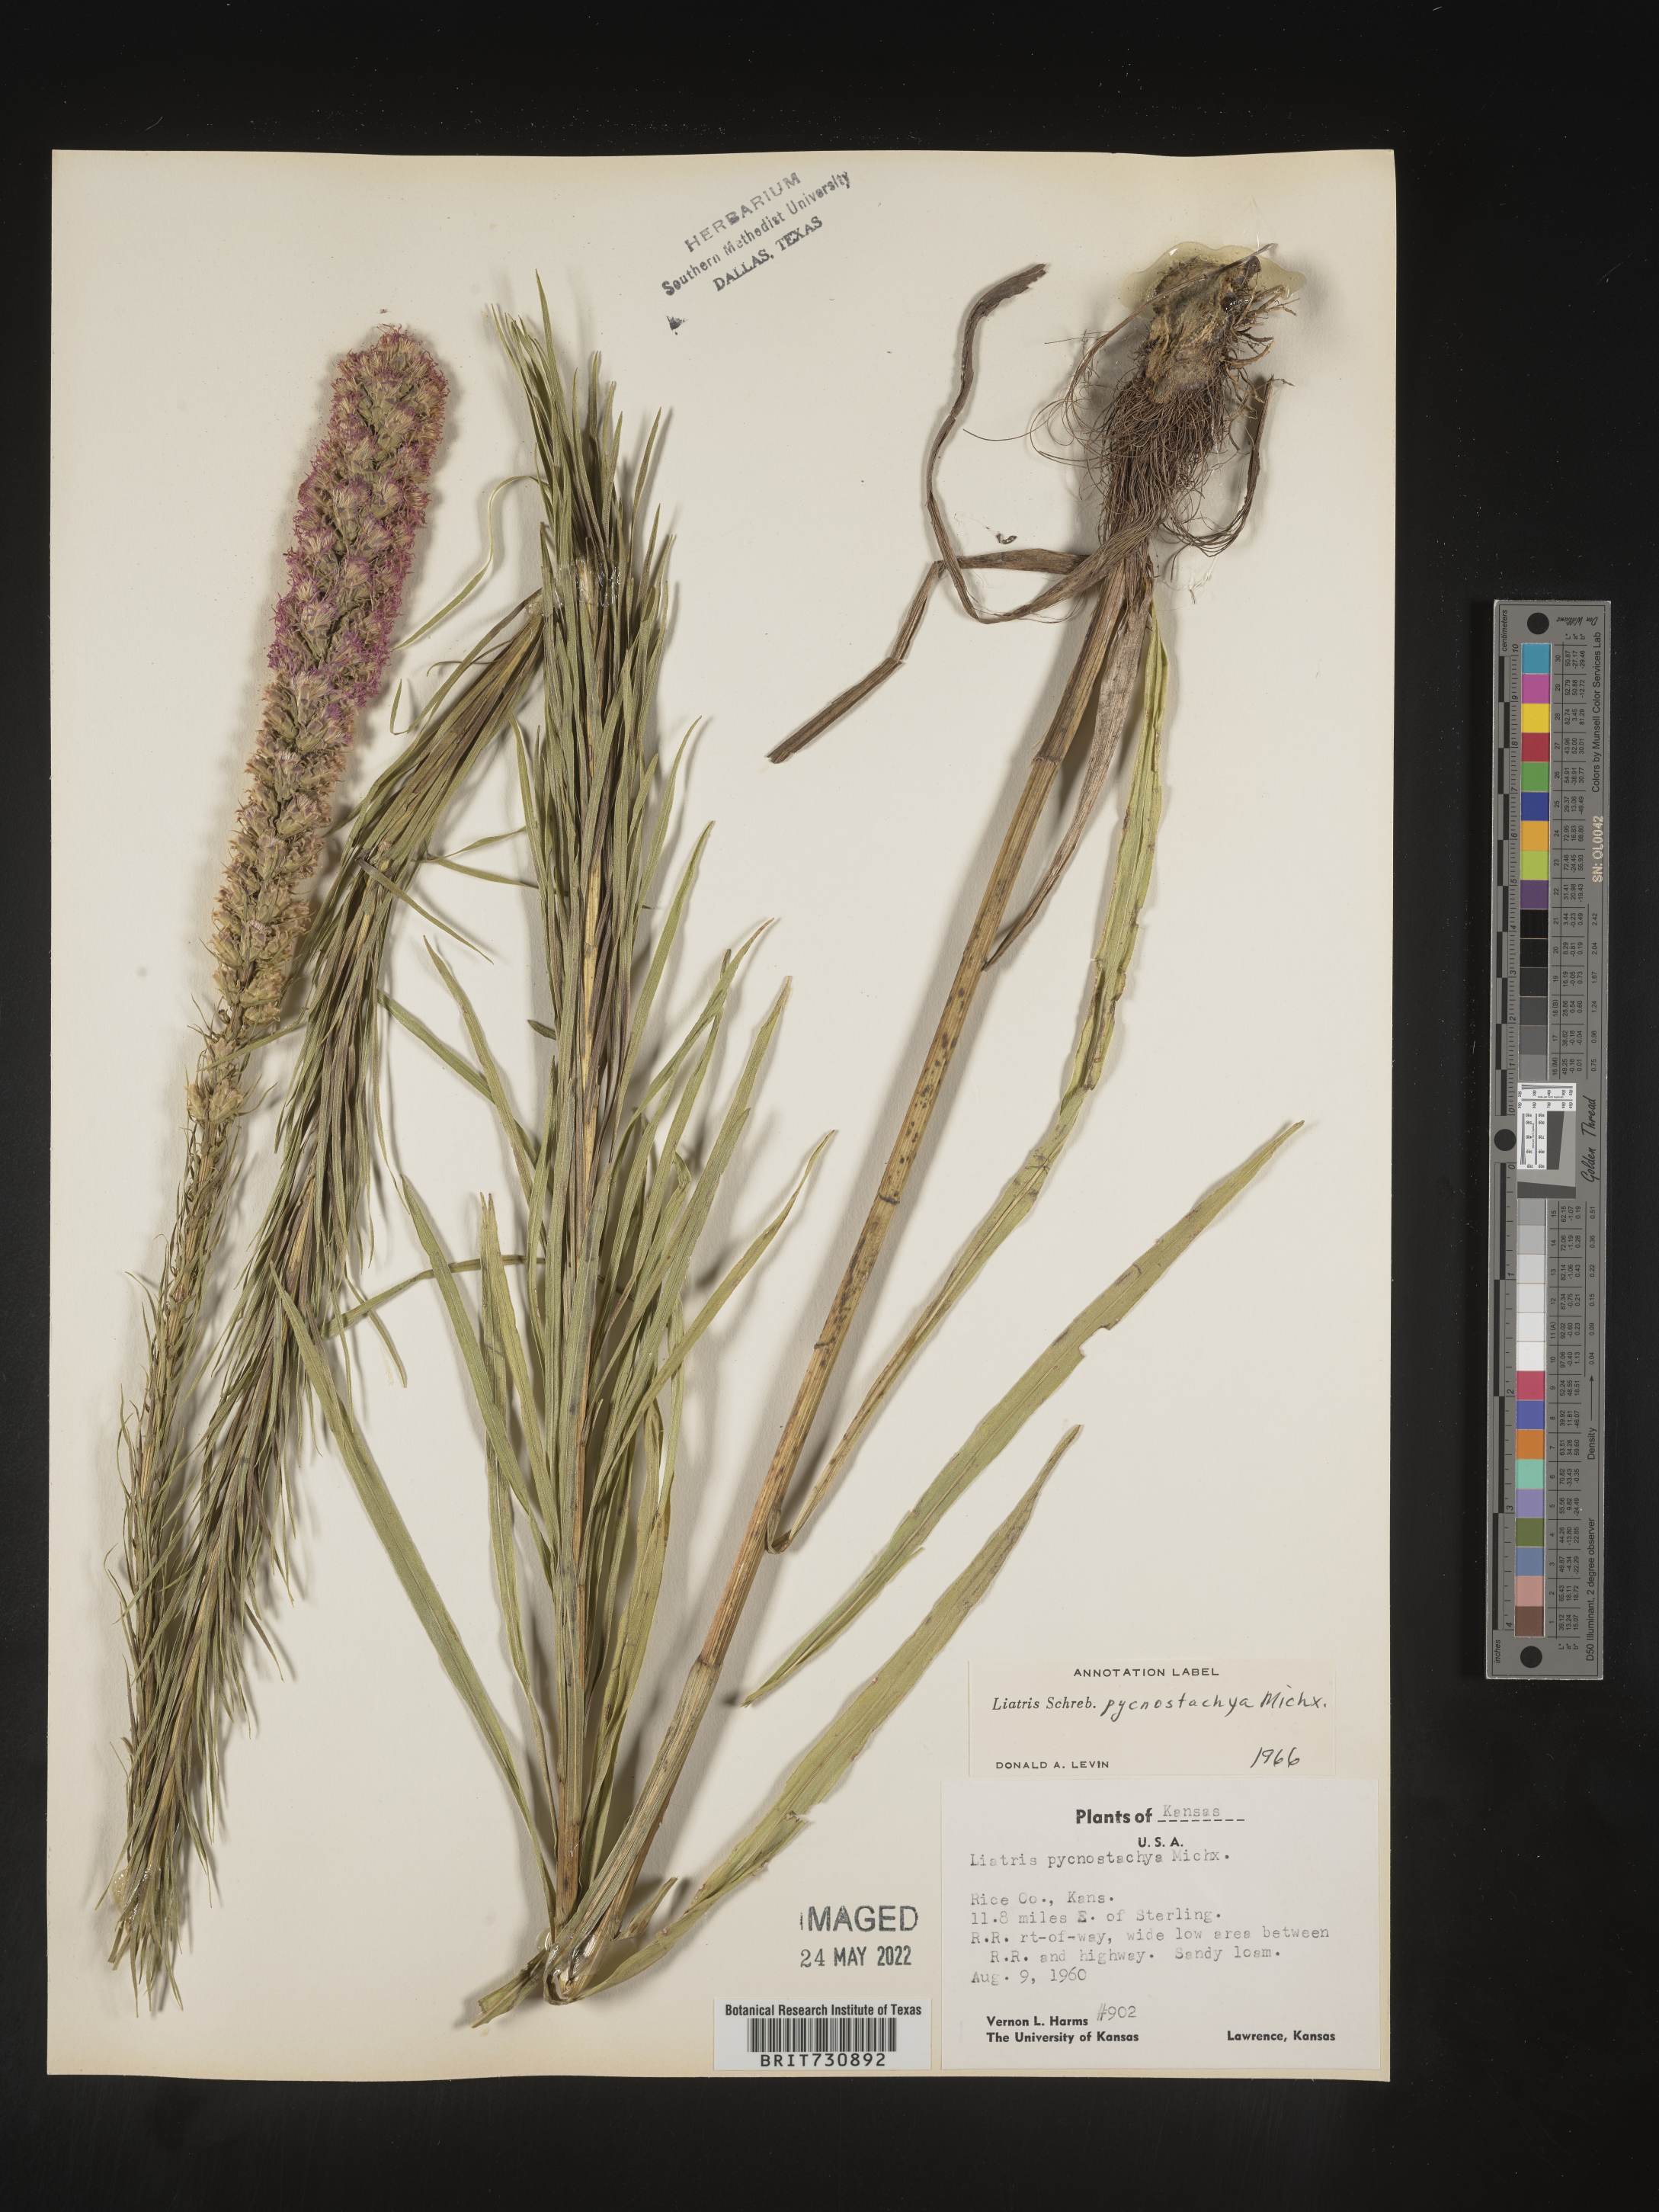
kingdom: Plantae
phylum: Tracheophyta
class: Magnoliopsida
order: Asterales
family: Asteraceae
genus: Liatris
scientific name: Liatris pycnostachya
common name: Cattail gayfeather
